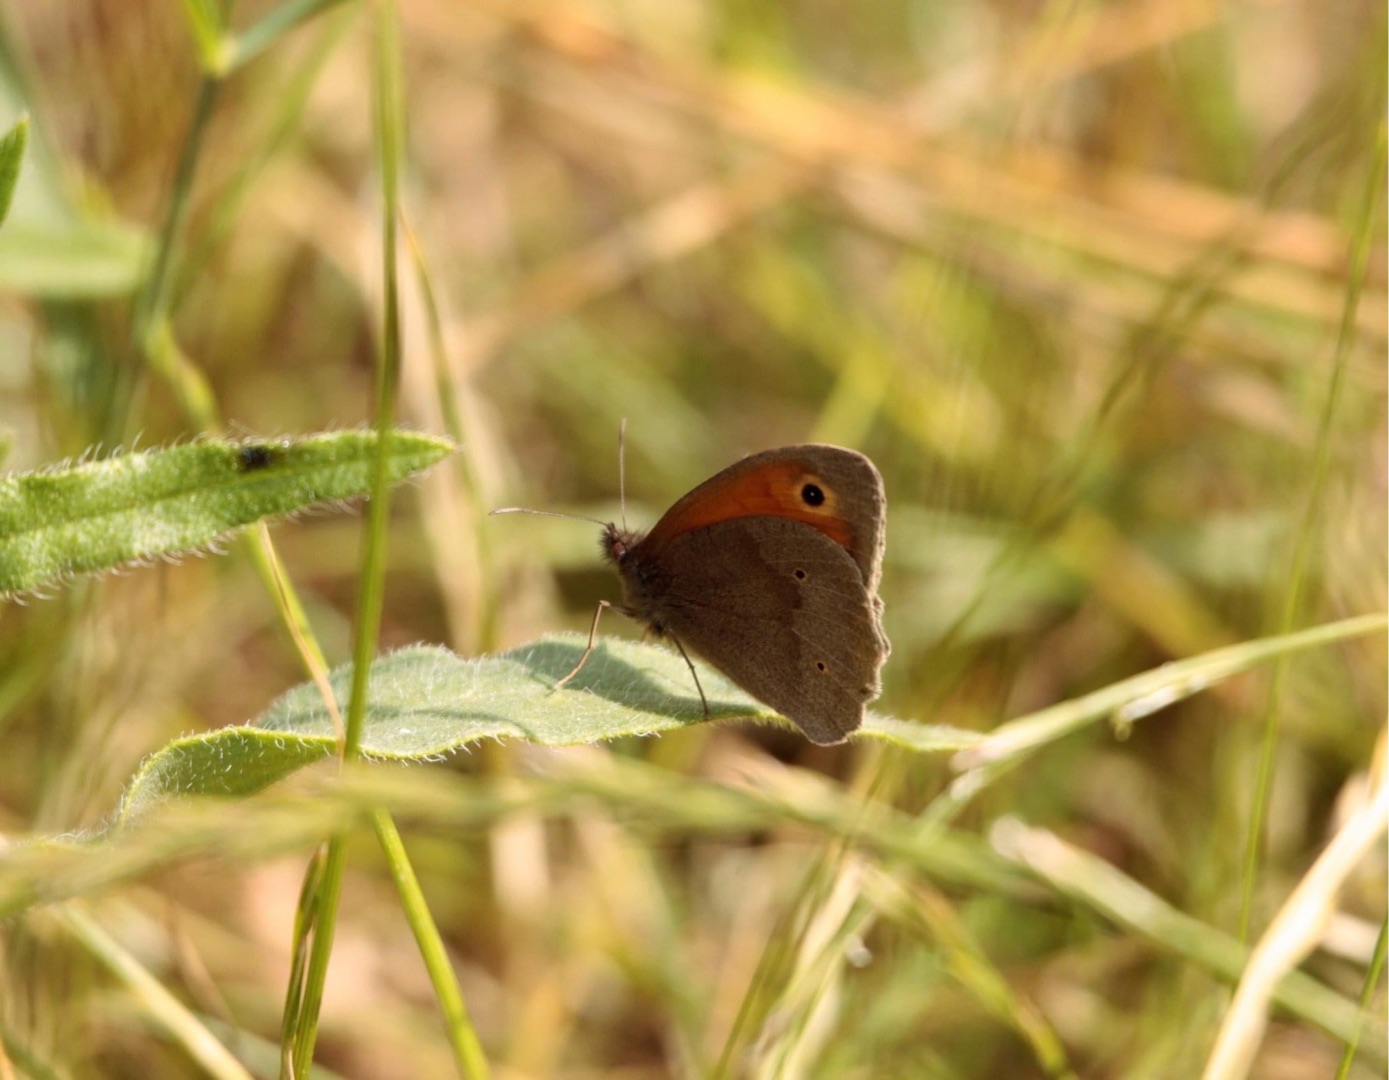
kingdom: Animalia
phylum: Arthropoda
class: Insecta
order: Lepidoptera
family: Nymphalidae
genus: Maniola
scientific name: Maniola jurtina
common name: Græsrandøje
